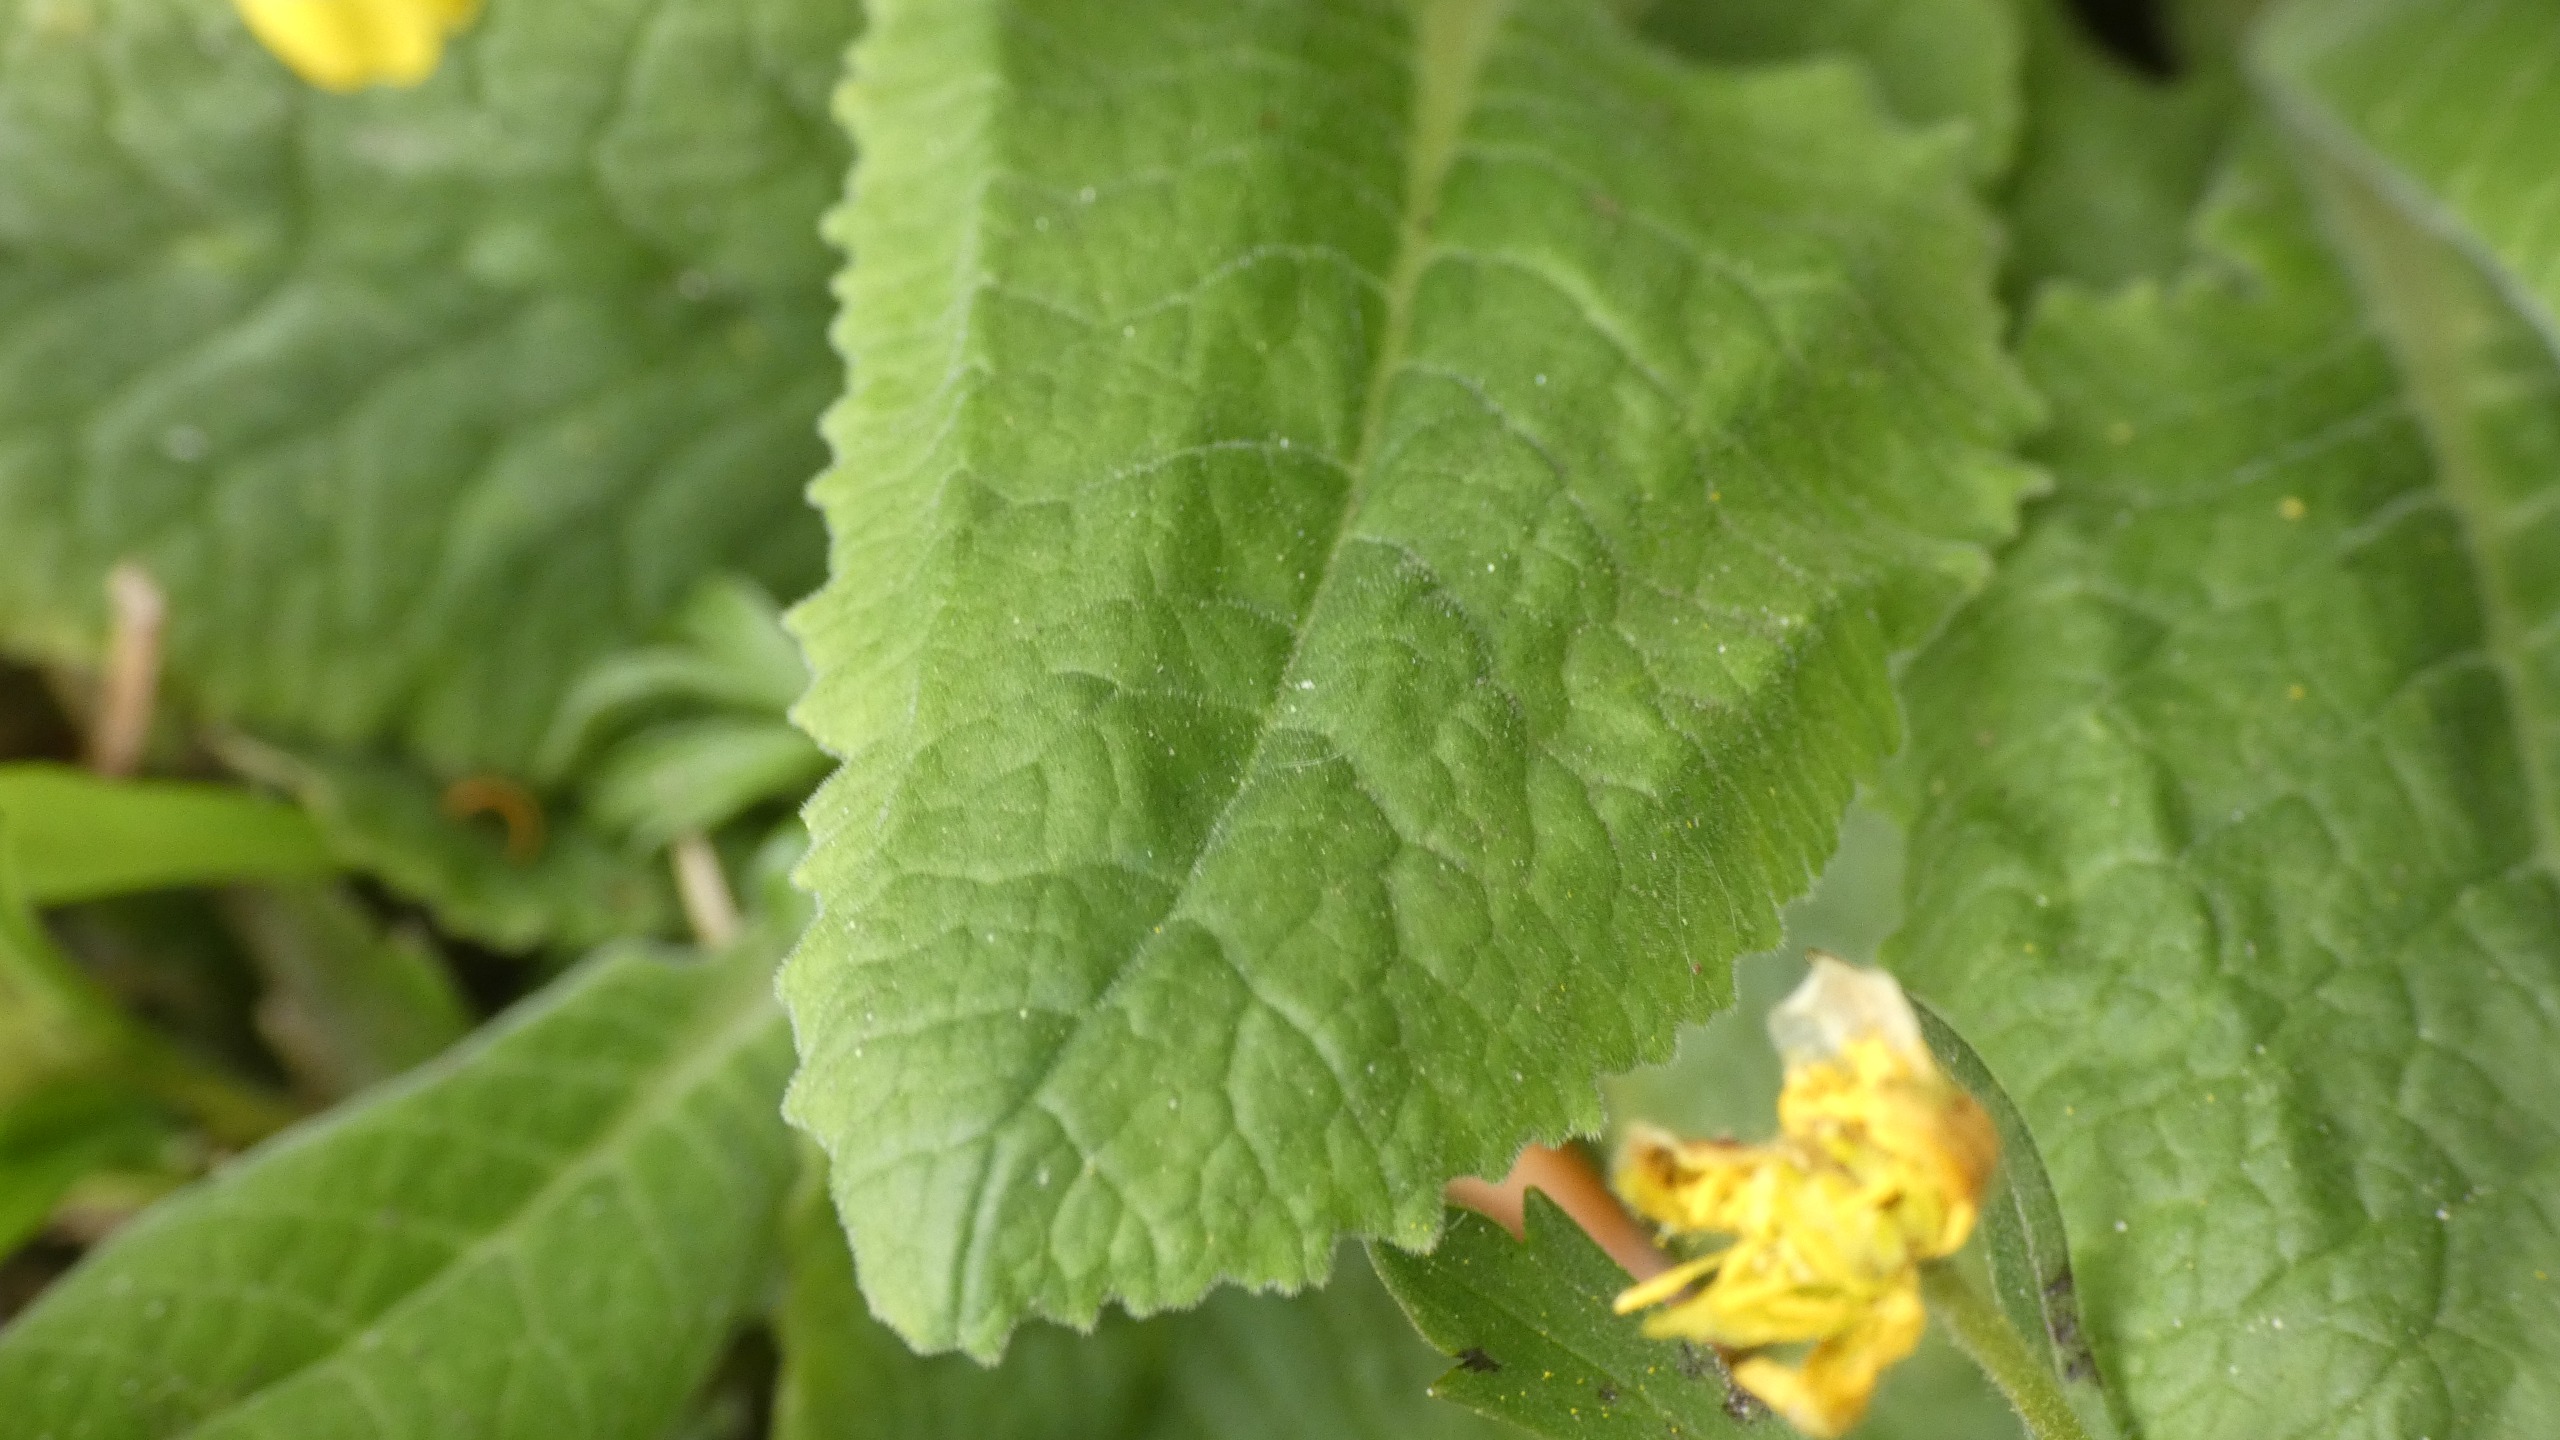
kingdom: Plantae
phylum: Tracheophyta
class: Magnoliopsida
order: Ericales
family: Primulaceae
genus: Primula
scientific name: Primula veris
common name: Hulkravet kodriver
